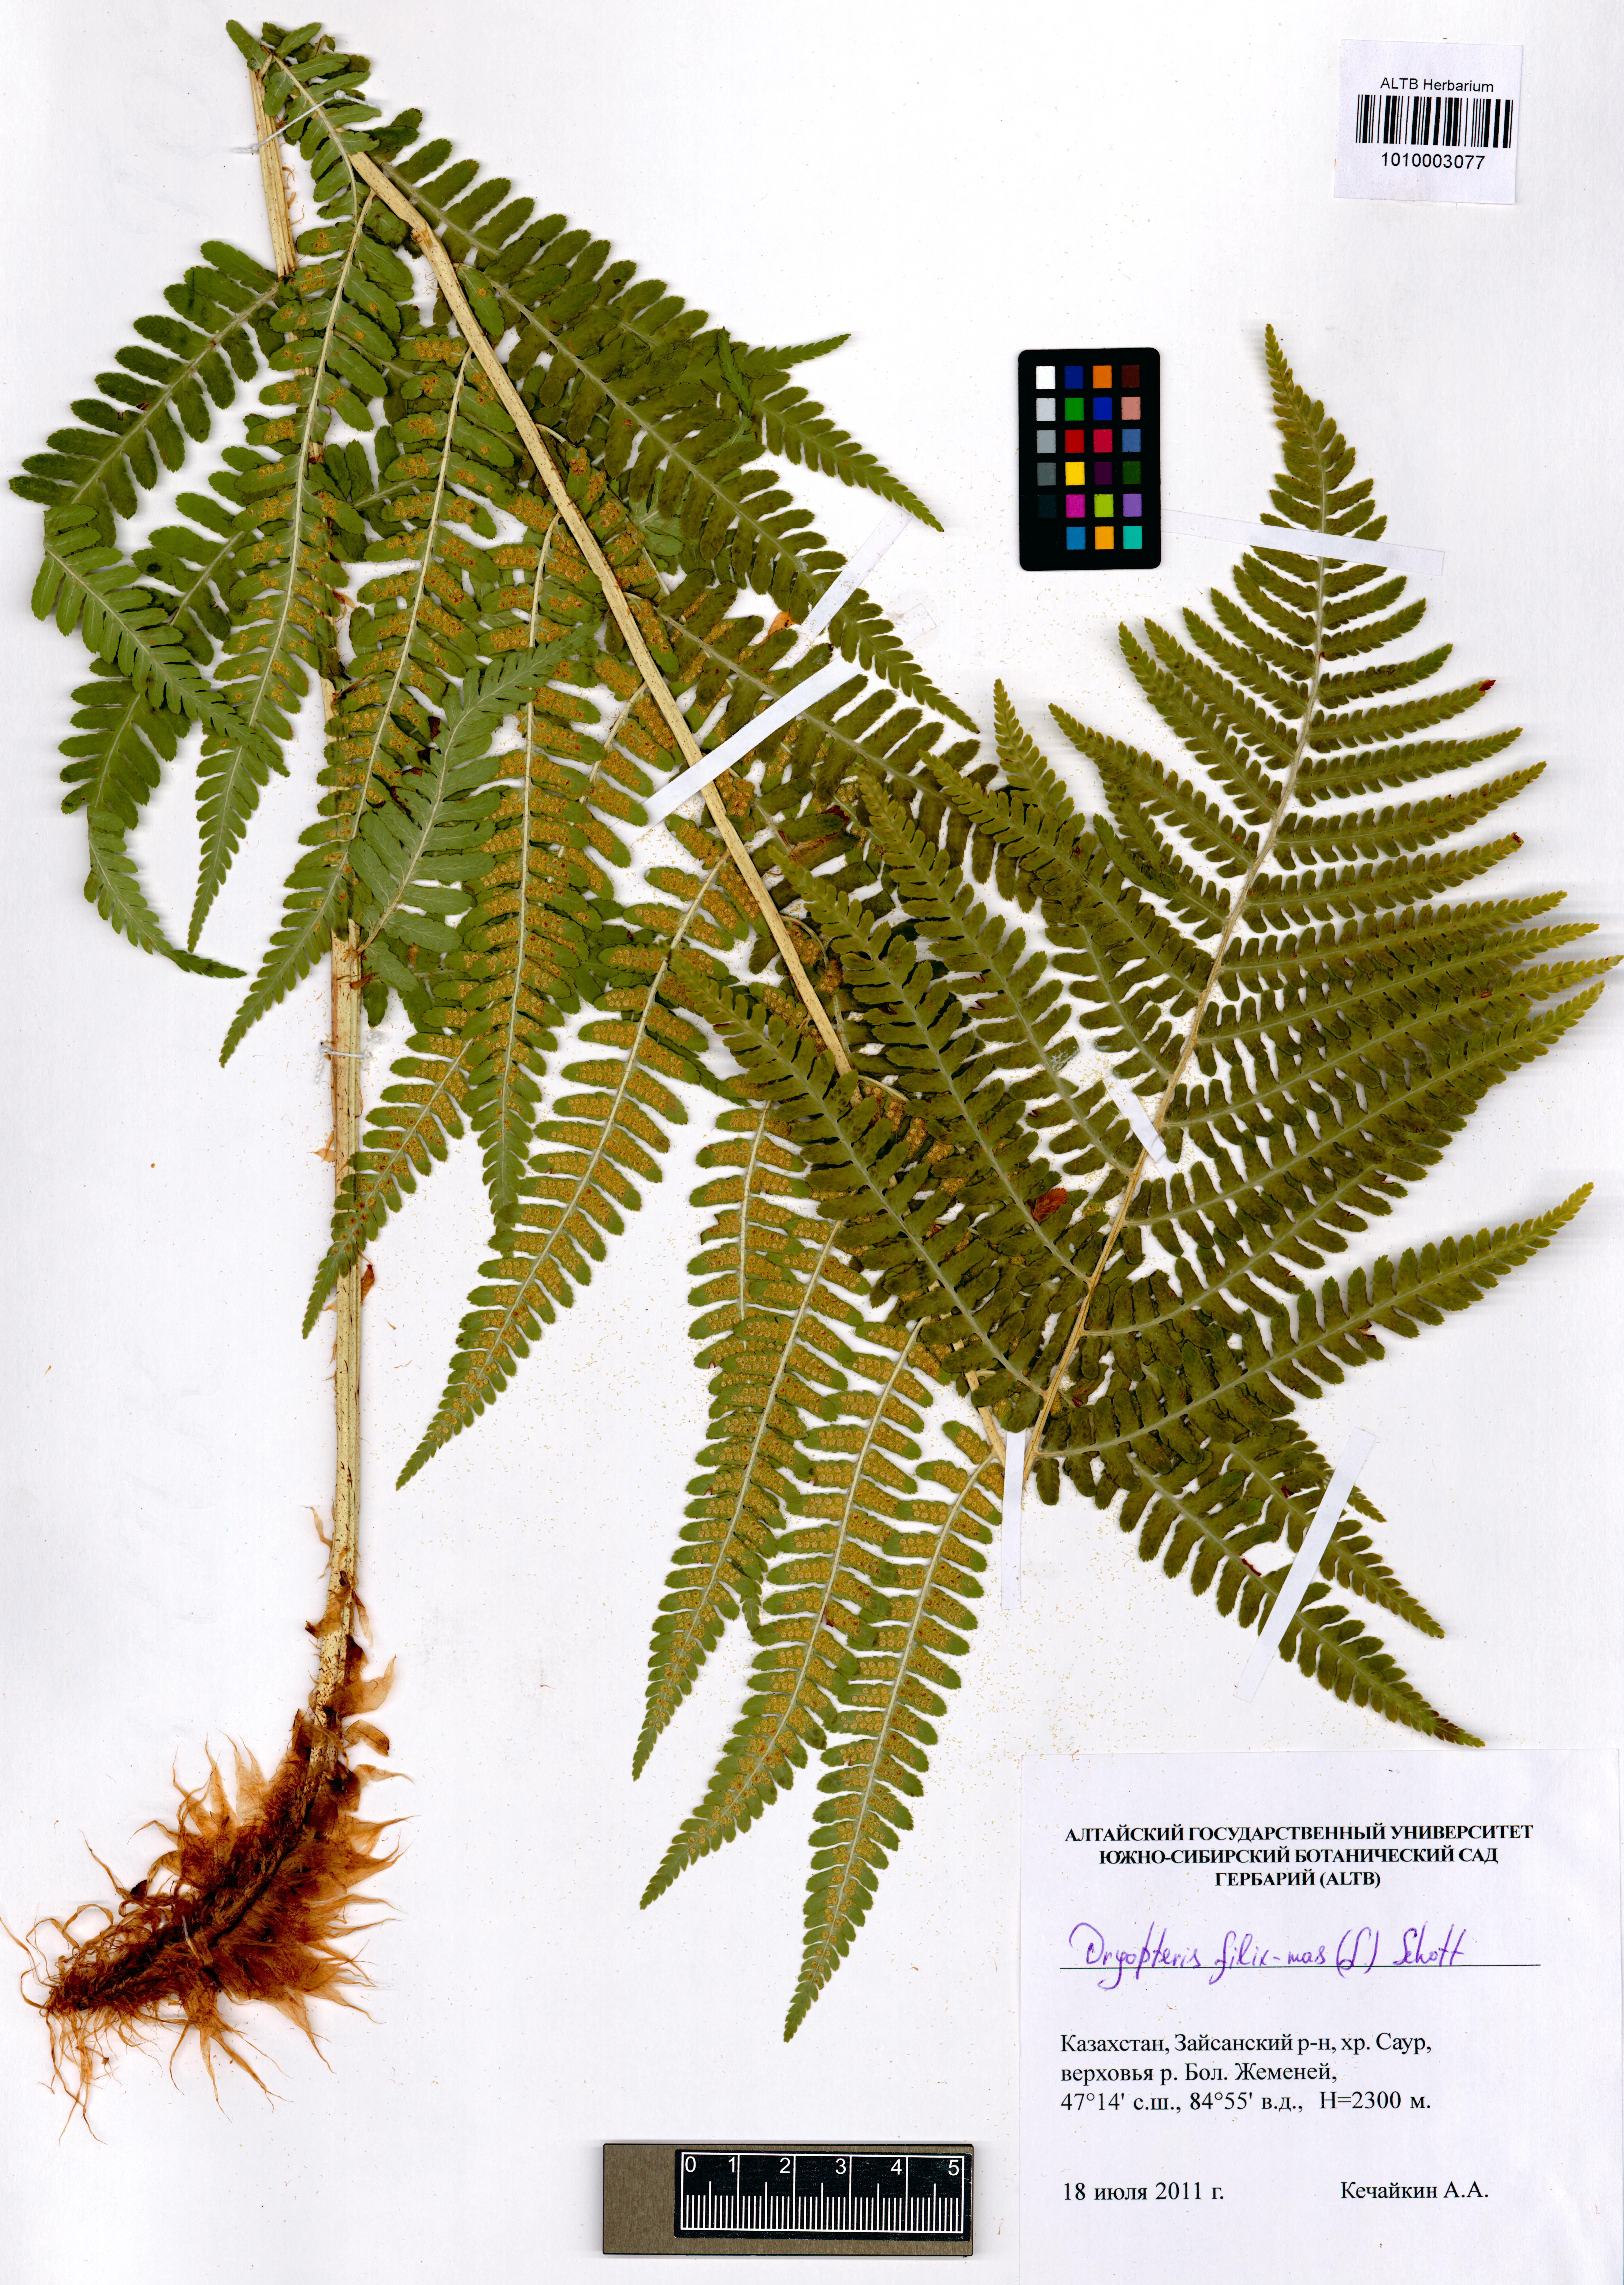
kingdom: Plantae
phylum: Tracheophyta
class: Polypodiopsida
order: Polypodiales
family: Dryopteridaceae
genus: Dryopteris
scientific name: Dryopteris filix-mas
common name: Male fern
